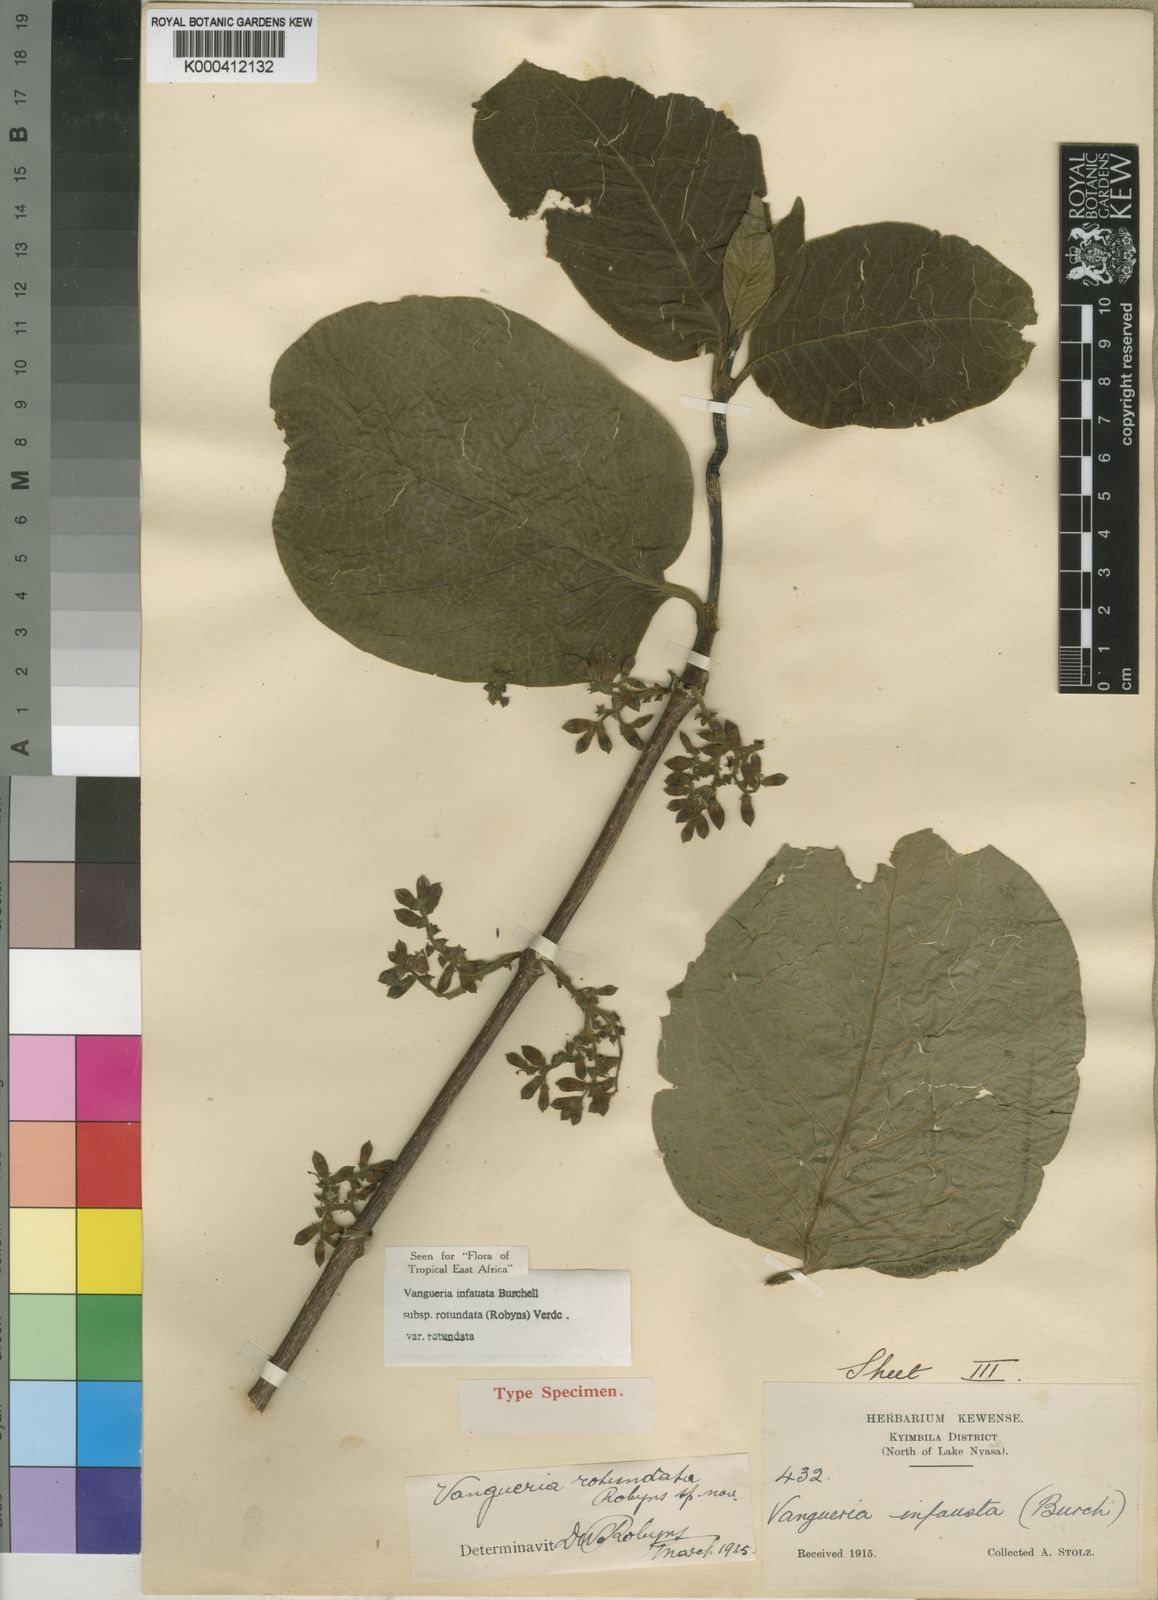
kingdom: Plantae
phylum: Tracheophyta
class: Magnoliopsida
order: Gentianales
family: Rubiaceae
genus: Vangueria
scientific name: Vangueria infausta
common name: Medlar
